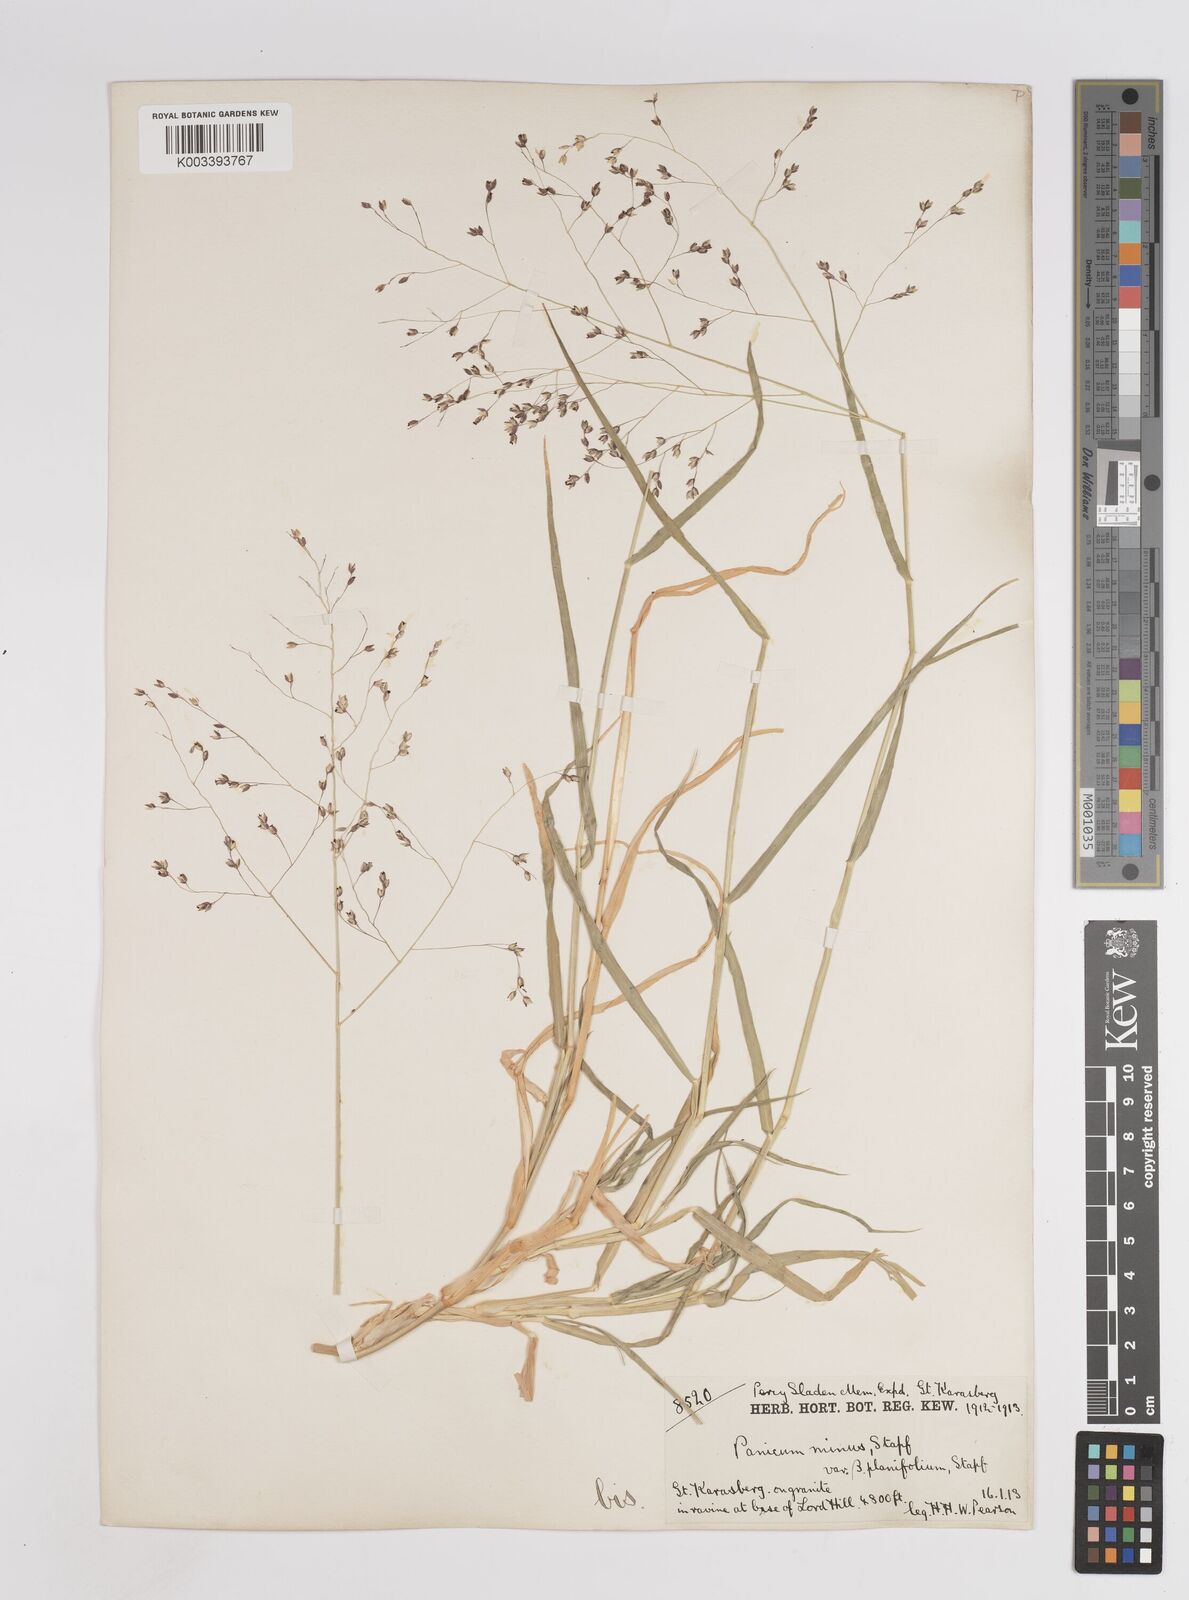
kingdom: Plantae
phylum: Tracheophyta
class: Liliopsida
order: Poales
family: Poaceae
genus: Panicum
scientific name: Panicum arbusculum
